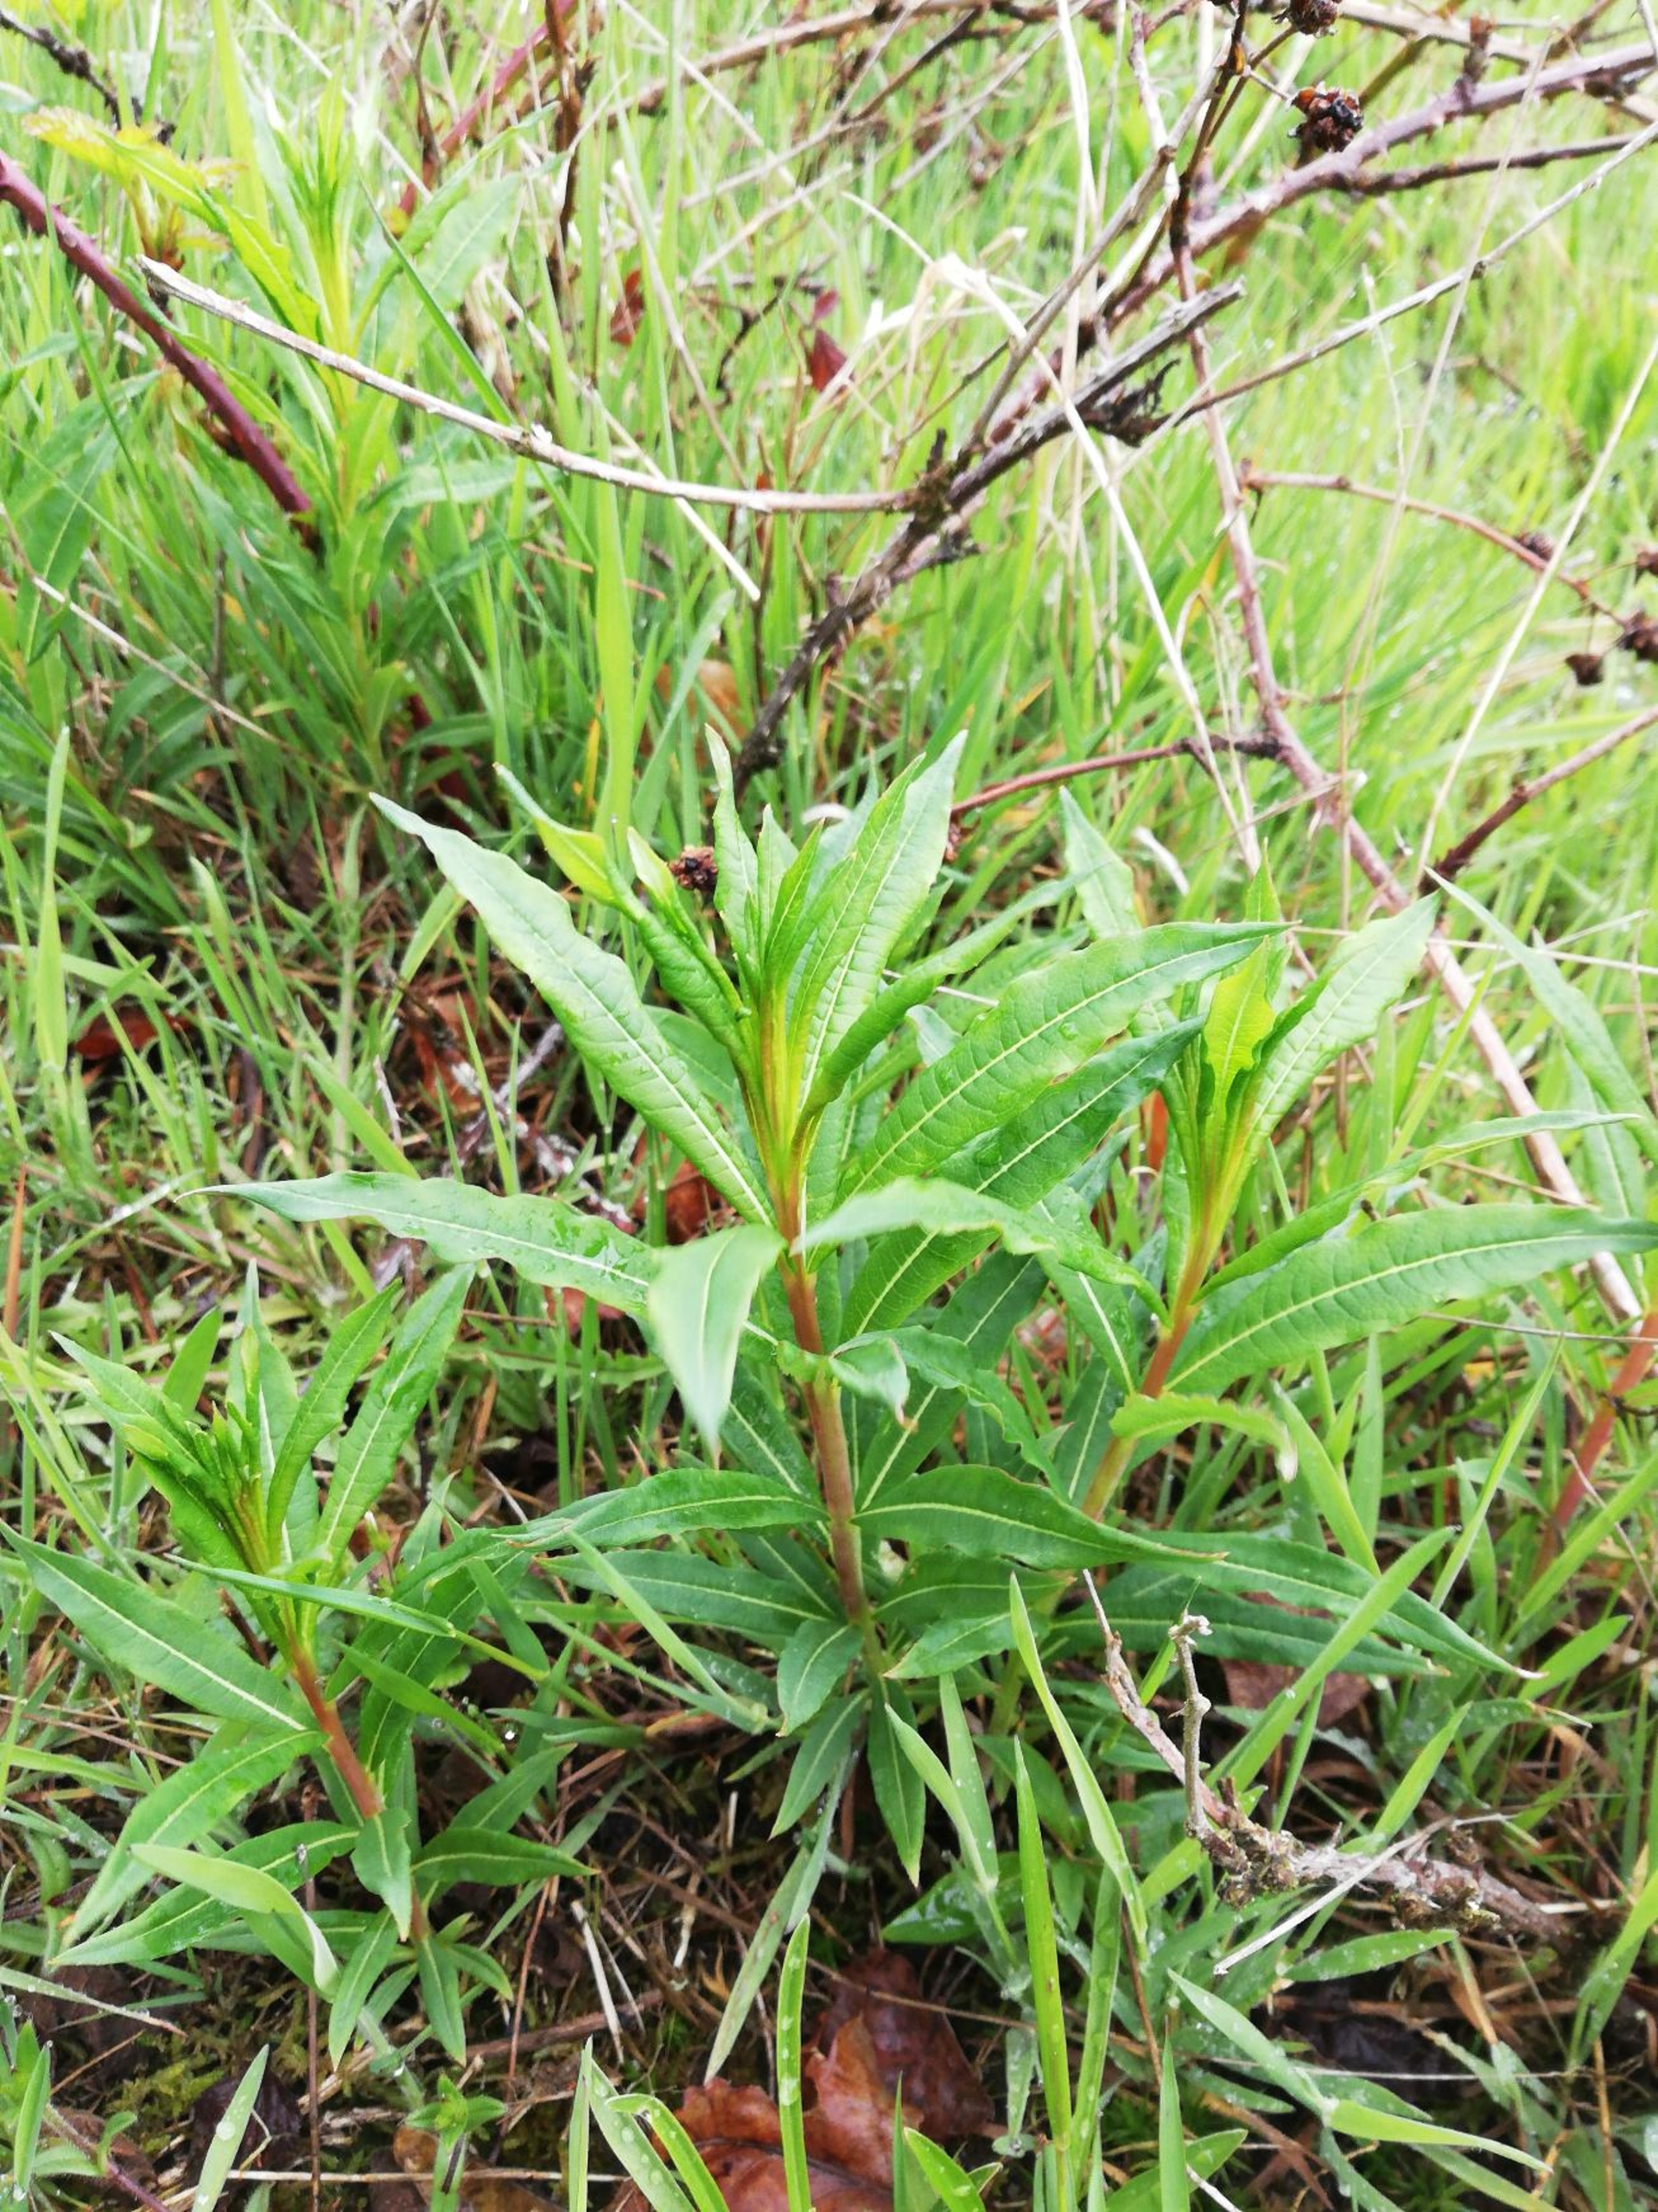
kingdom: Plantae
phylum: Tracheophyta
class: Magnoliopsida
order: Myrtales
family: Onagraceae
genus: Chamaenerion
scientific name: Chamaenerion angustifolium
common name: Gederams
